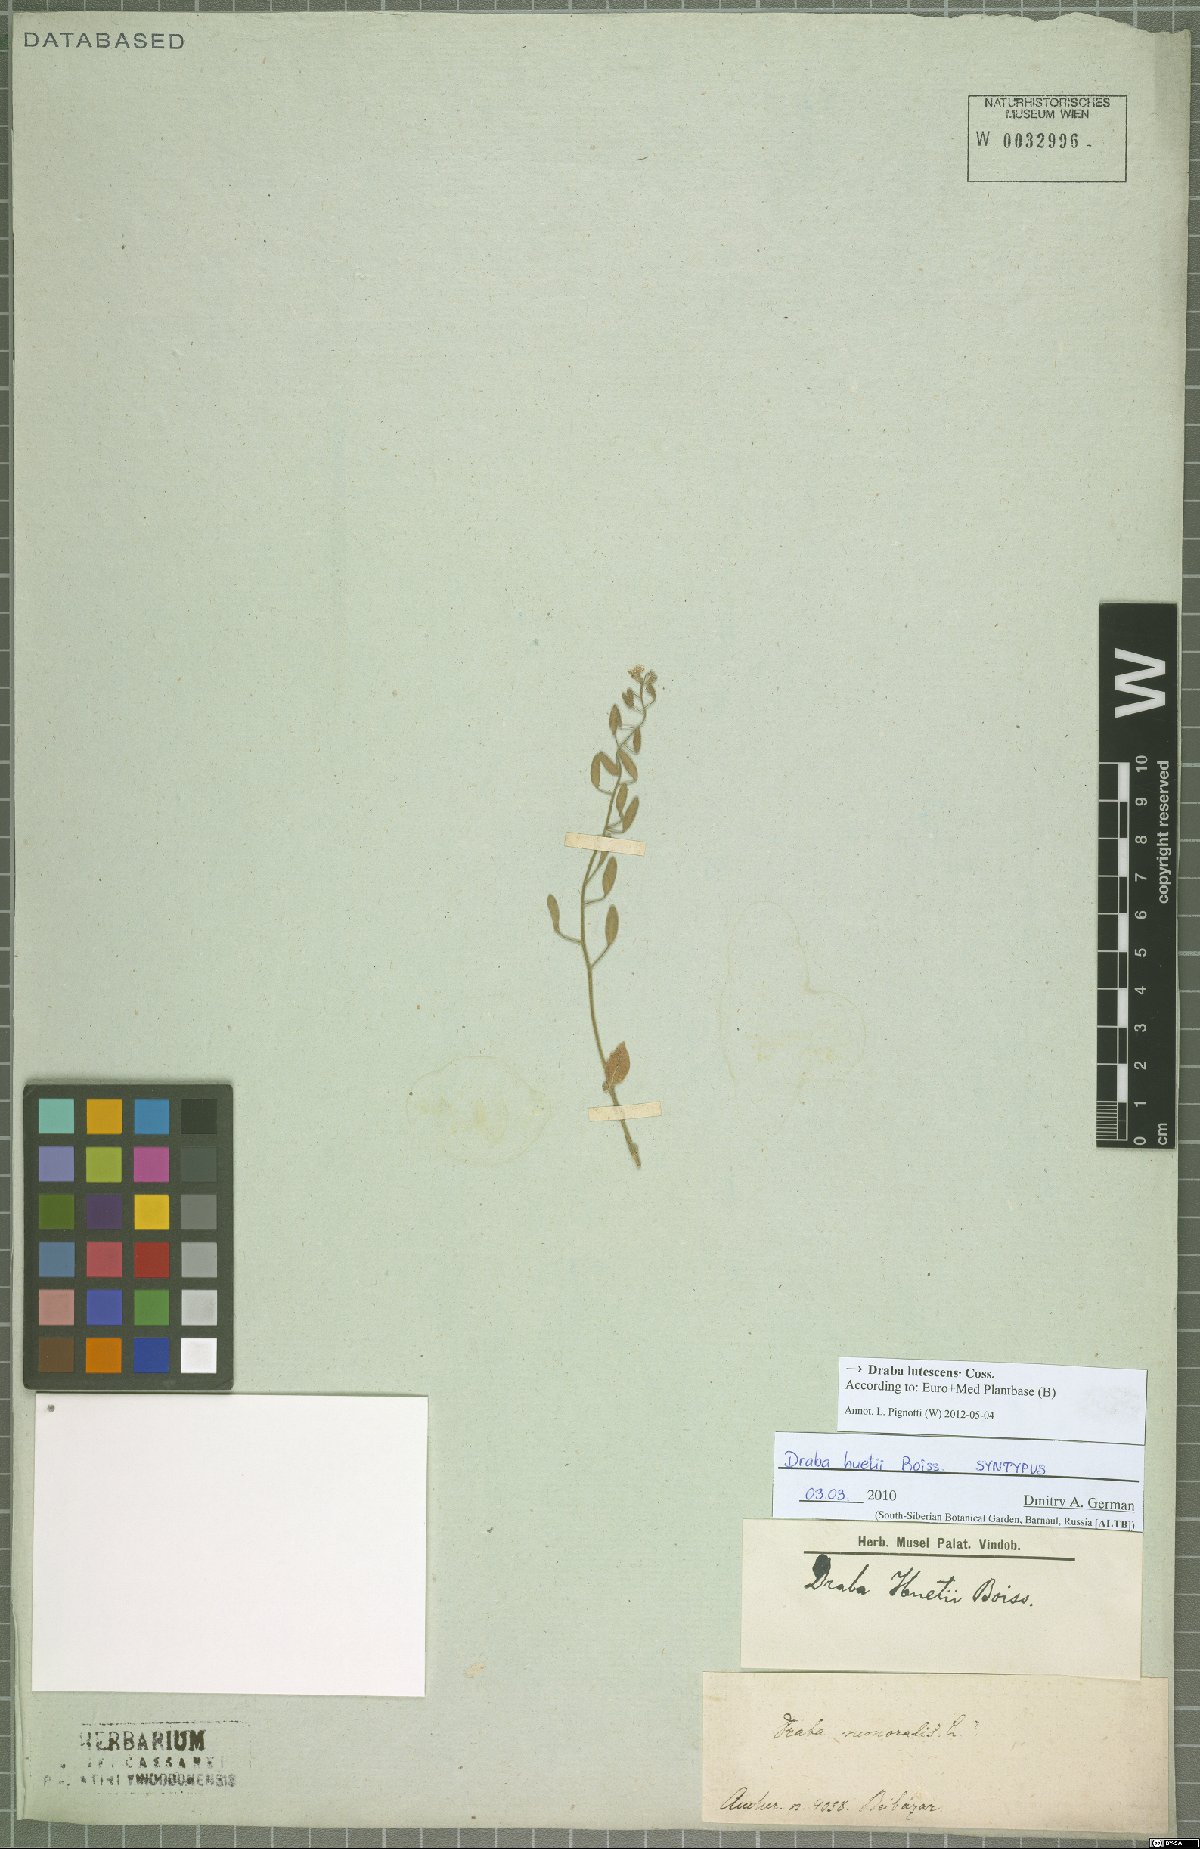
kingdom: Plantae
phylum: Tracheophyta
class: Magnoliopsida
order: Brassicales
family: Brassicaceae
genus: Draba
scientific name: Draba huetii
